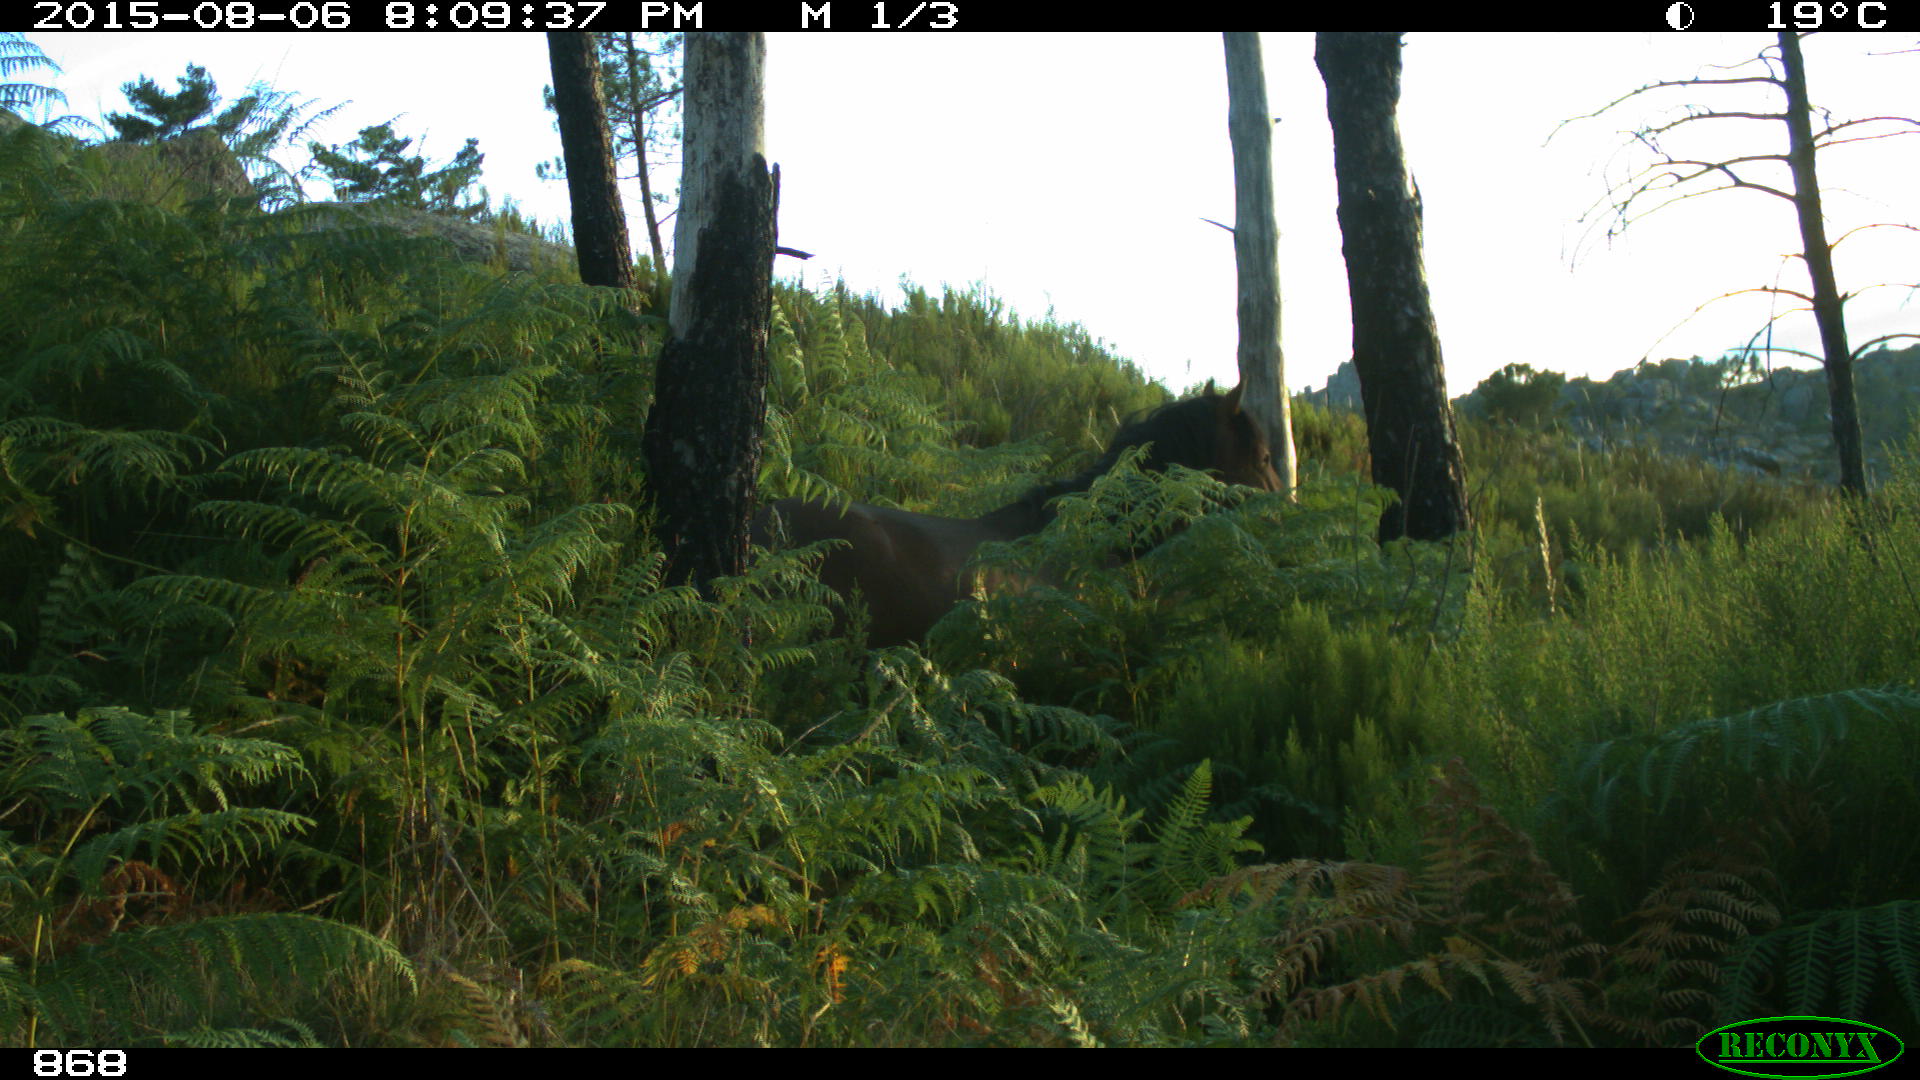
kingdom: Animalia
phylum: Chordata
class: Mammalia
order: Perissodactyla
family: Equidae
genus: Equus
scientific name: Equus caballus
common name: Horse
